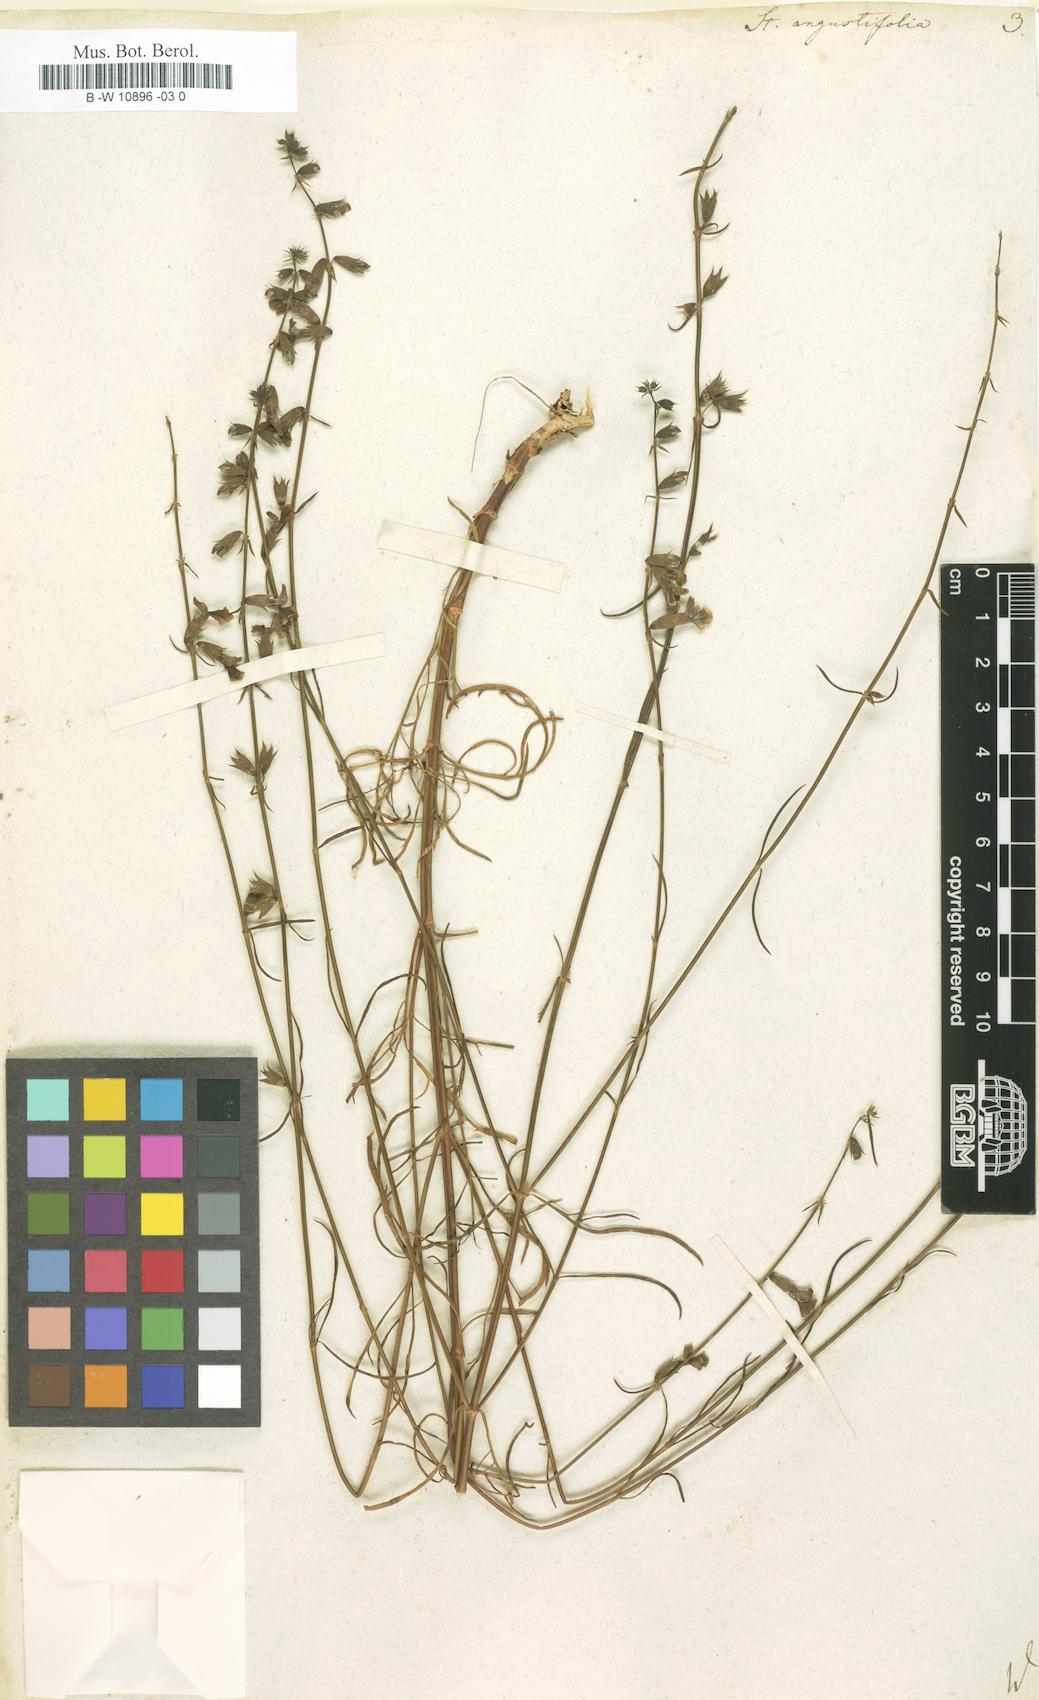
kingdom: Plantae
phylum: Tracheophyta
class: Magnoliopsida
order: Lamiales
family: Lamiaceae
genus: Stachys
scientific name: Stachys angustifolia
